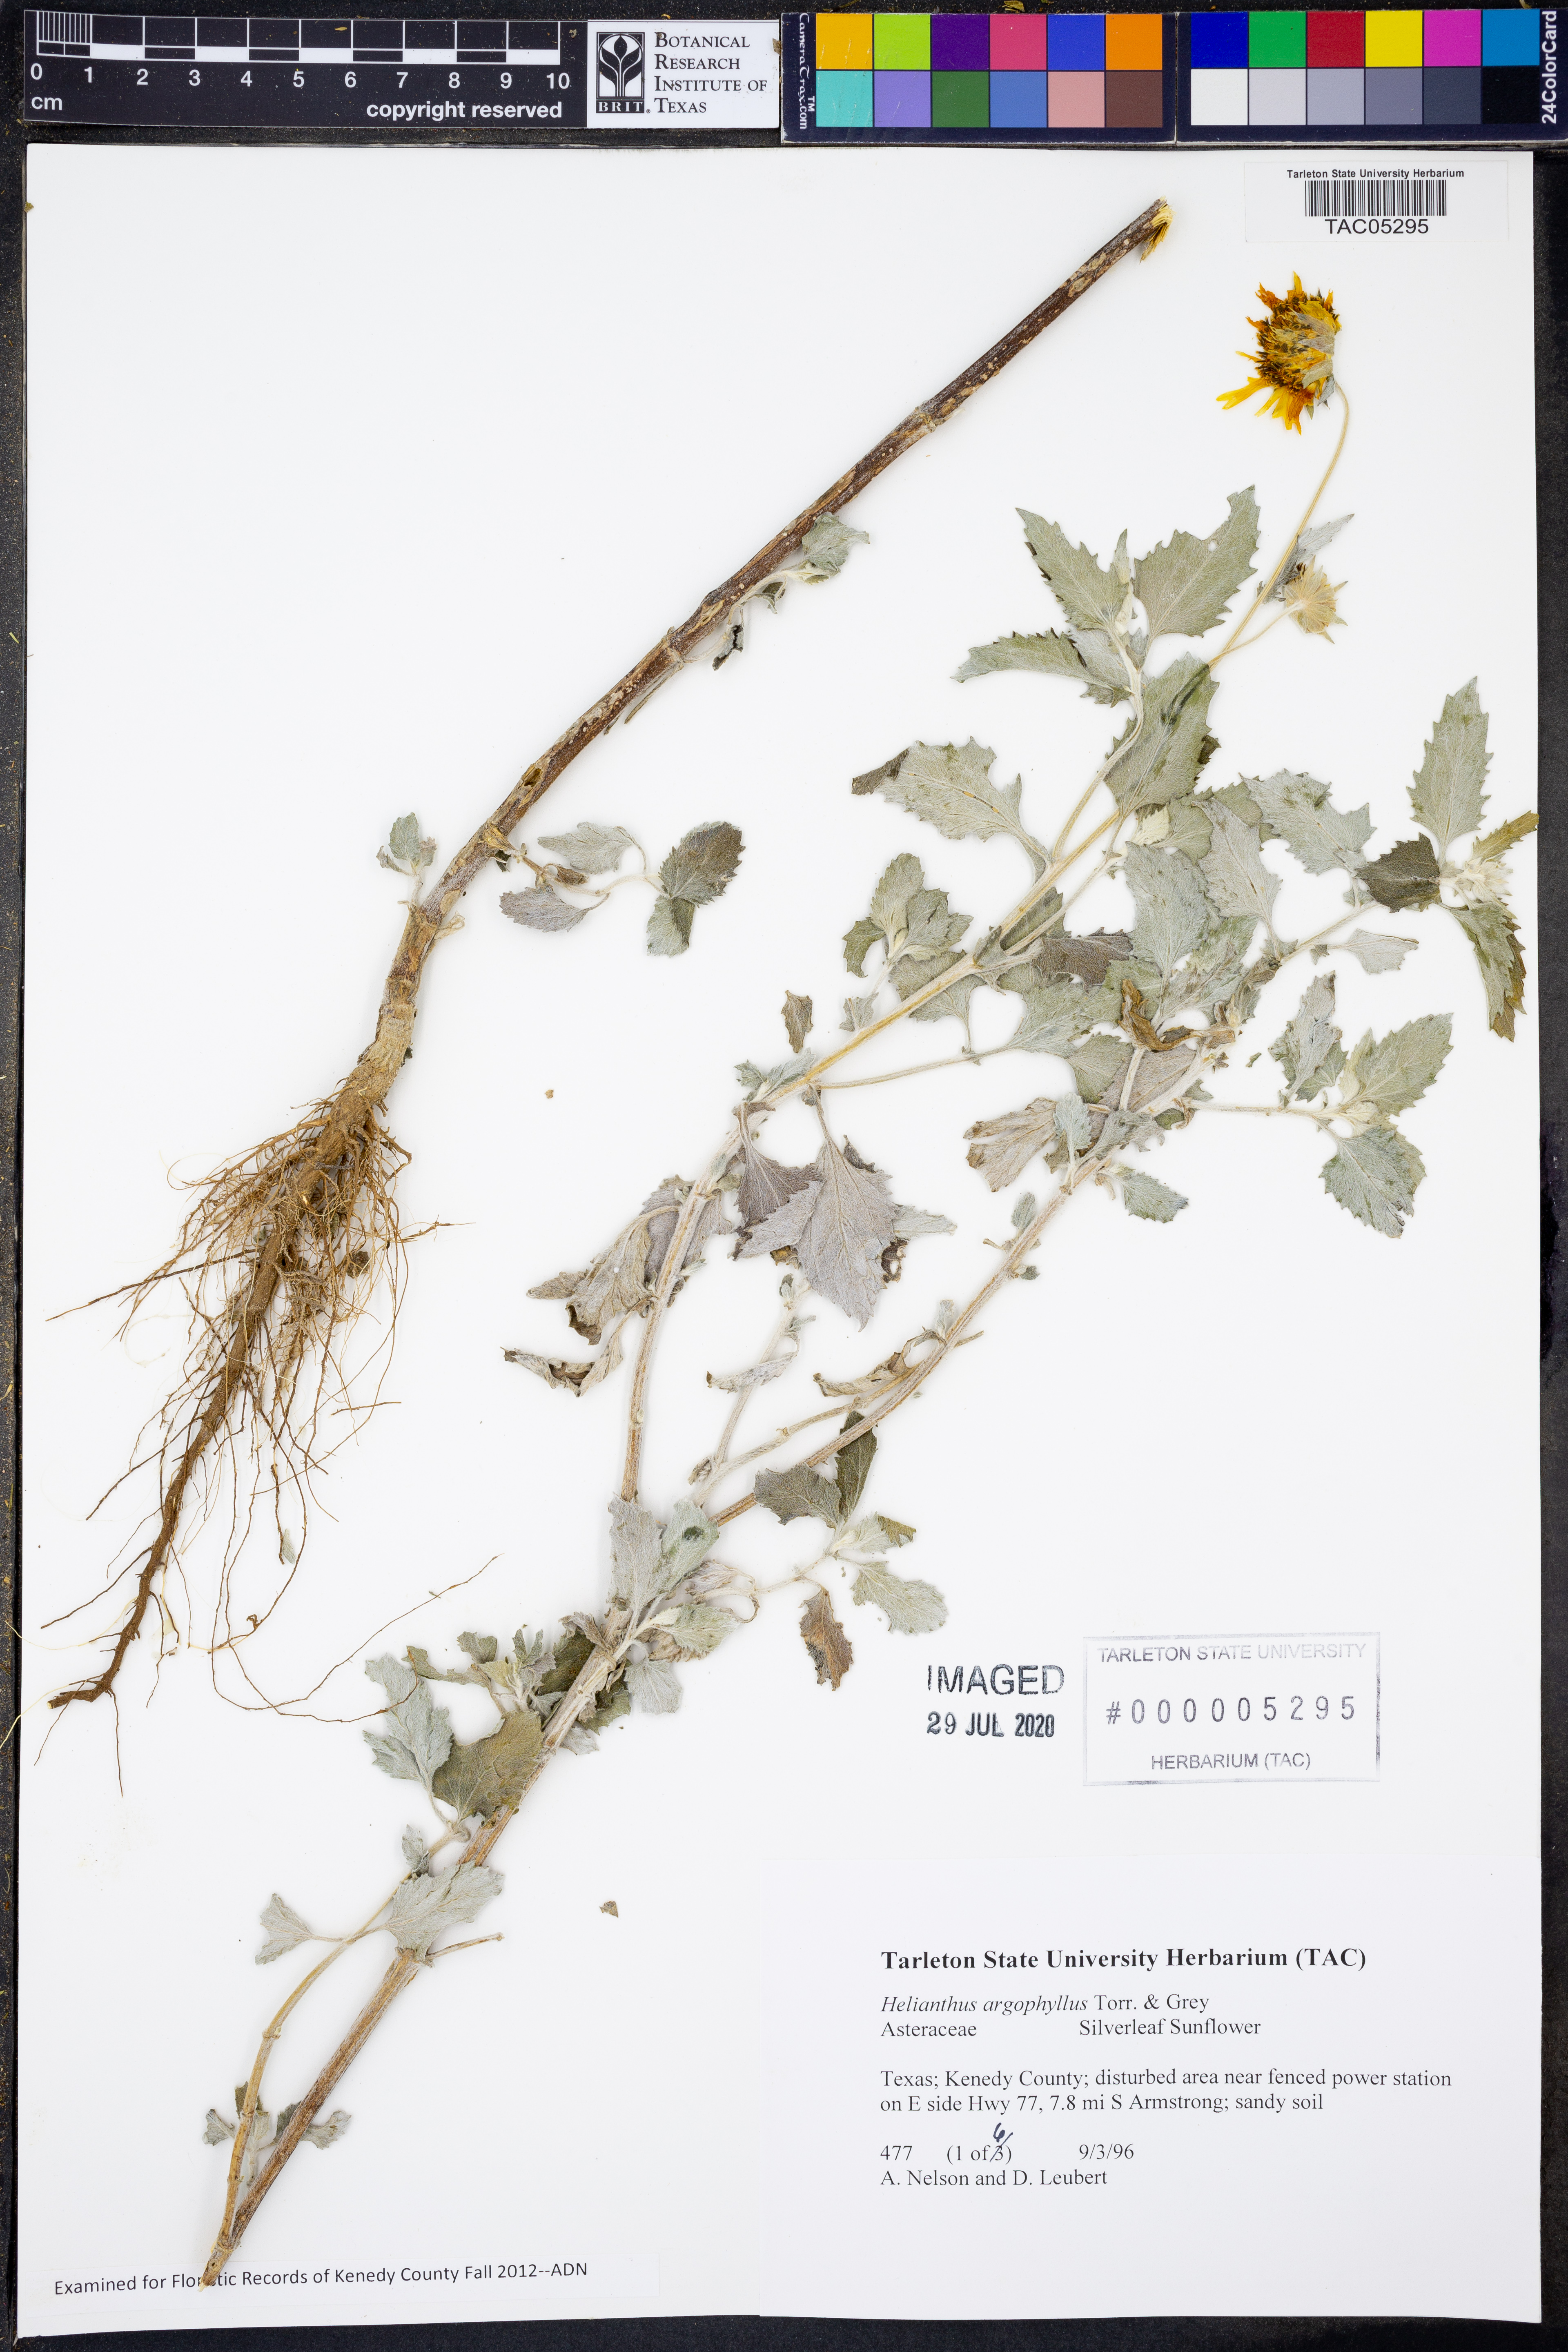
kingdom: Plantae
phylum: Tracheophyta
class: Magnoliopsida
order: Asterales
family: Asteraceae
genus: Helianthus
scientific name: Helianthus argophyllus
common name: Silverleaf sunflower
